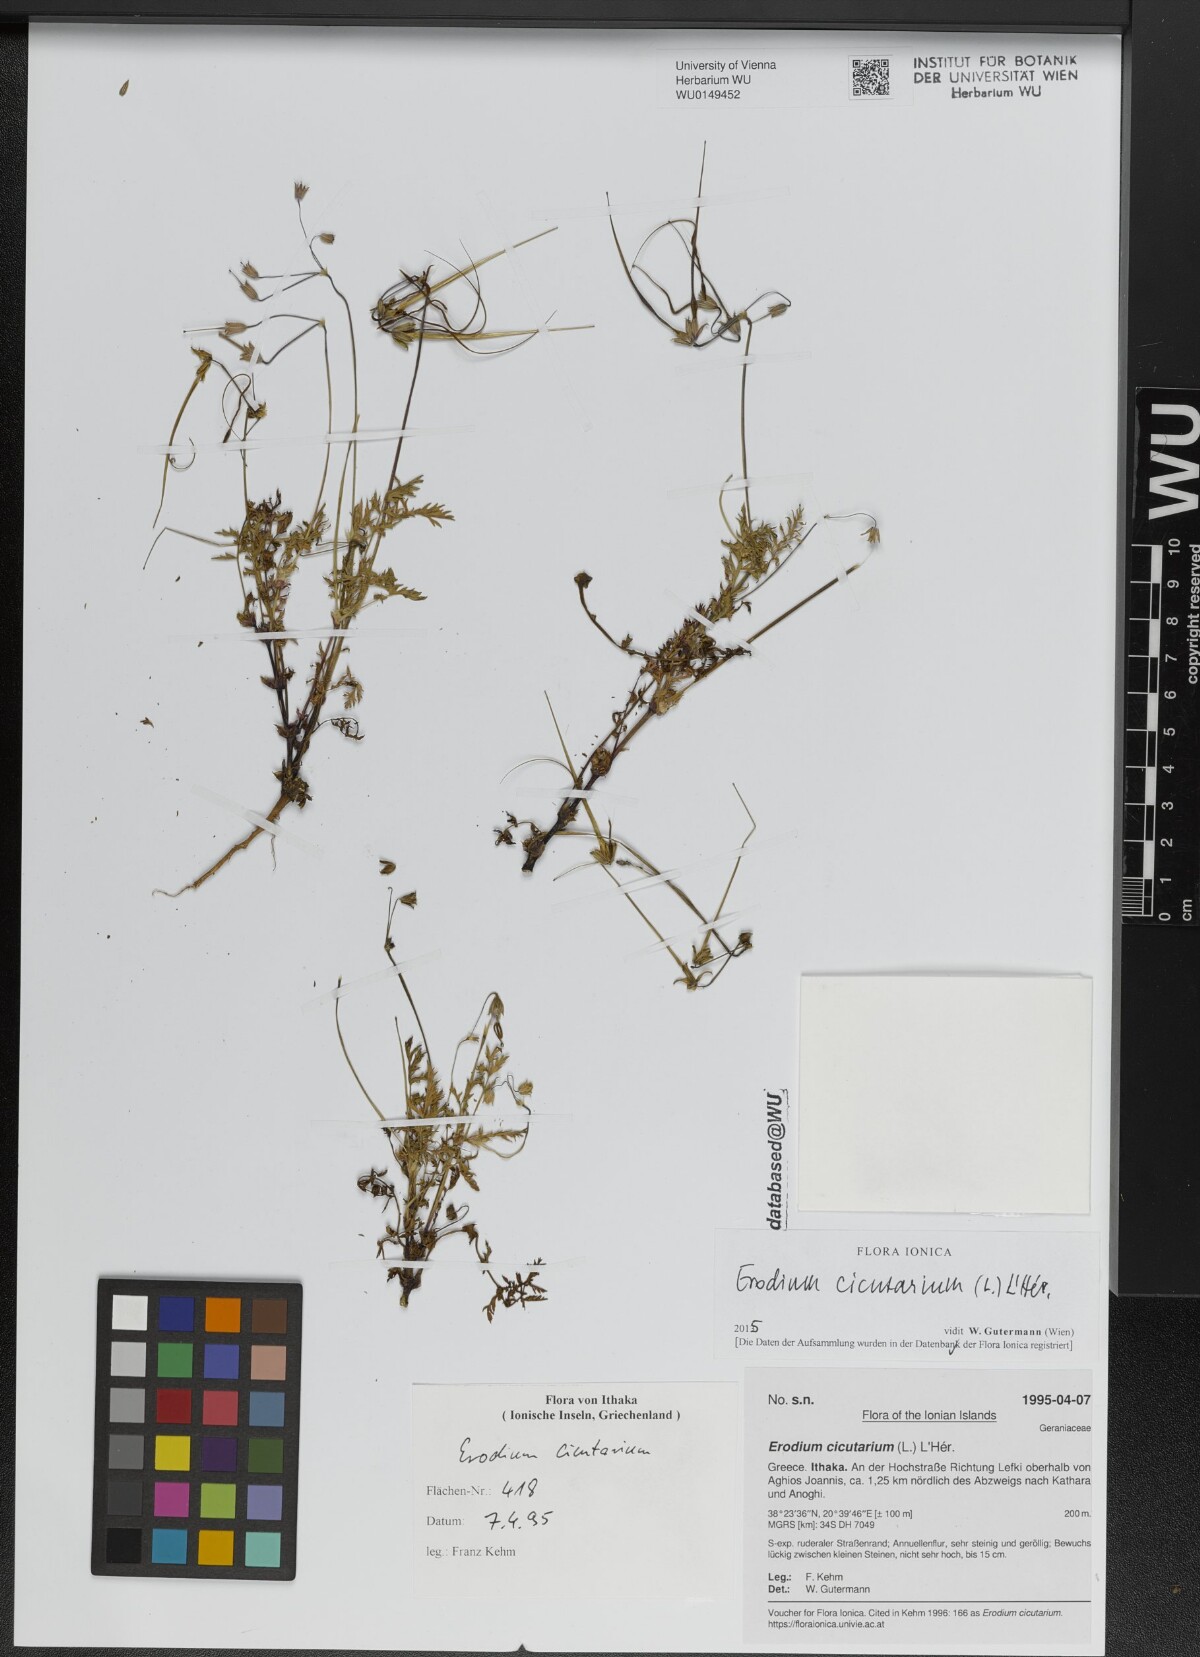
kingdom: Plantae
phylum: Tracheophyta
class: Magnoliopsida
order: Geraniales
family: Geraniaceae
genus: Erodium
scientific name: Erodium cicutarium
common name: Common stork's-bill
